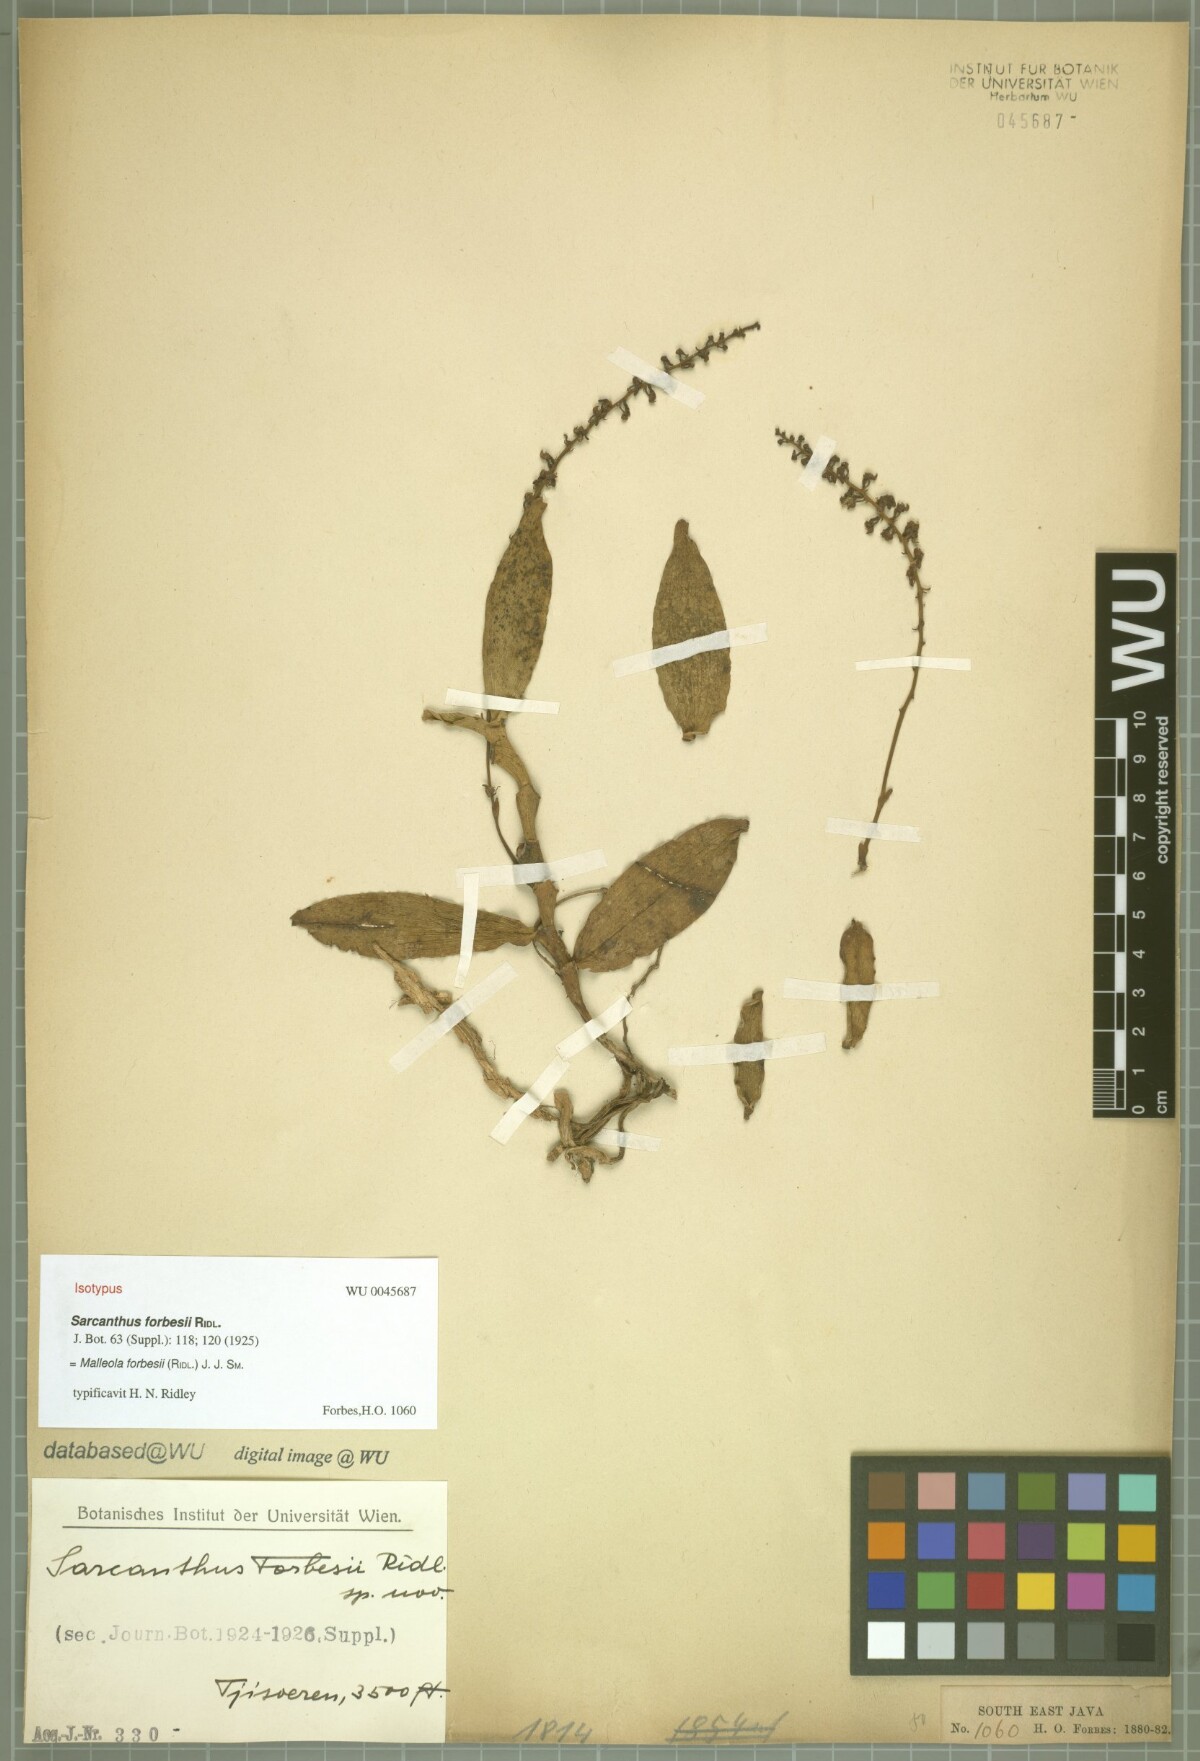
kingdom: Plantae
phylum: Tracheophyta
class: Liliopsida
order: Asparagales
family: Orchidaceae
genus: Robiquetia
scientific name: Robiquetia forbesii
